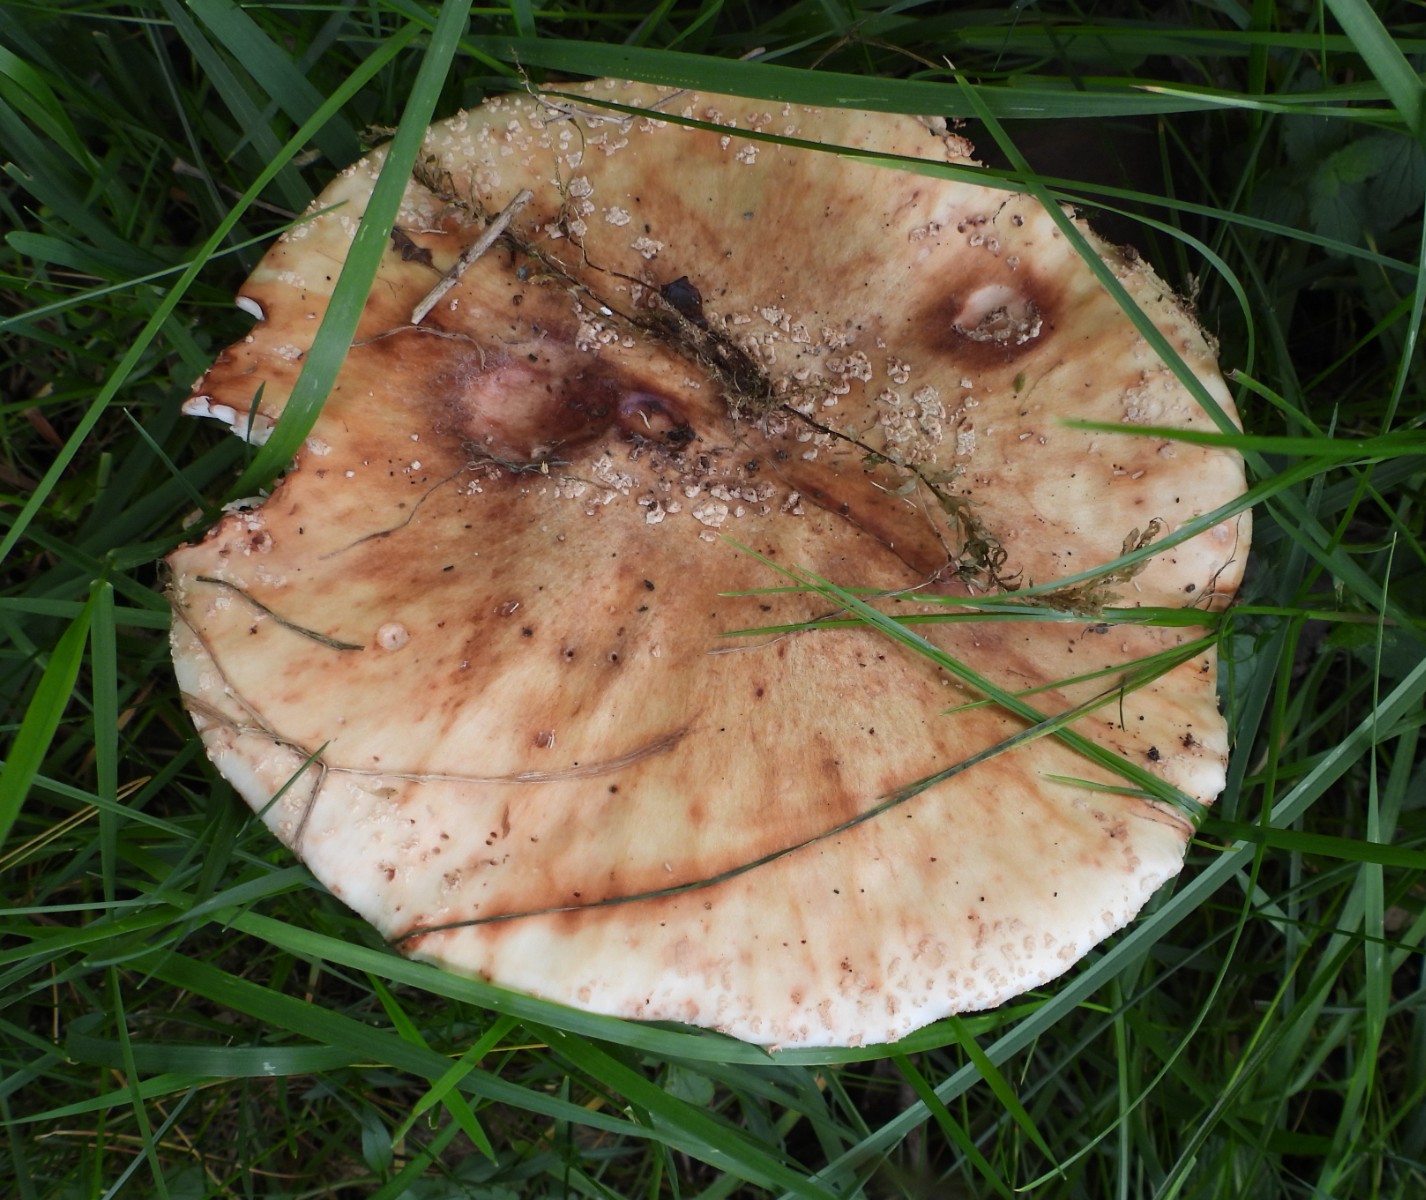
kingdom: Fungi
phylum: Basidiomycota
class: Agaricomycetes
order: Agaricales
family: Amanitaceae
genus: Amanita
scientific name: Amanita rubescens
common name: rødmende fluesvamp
